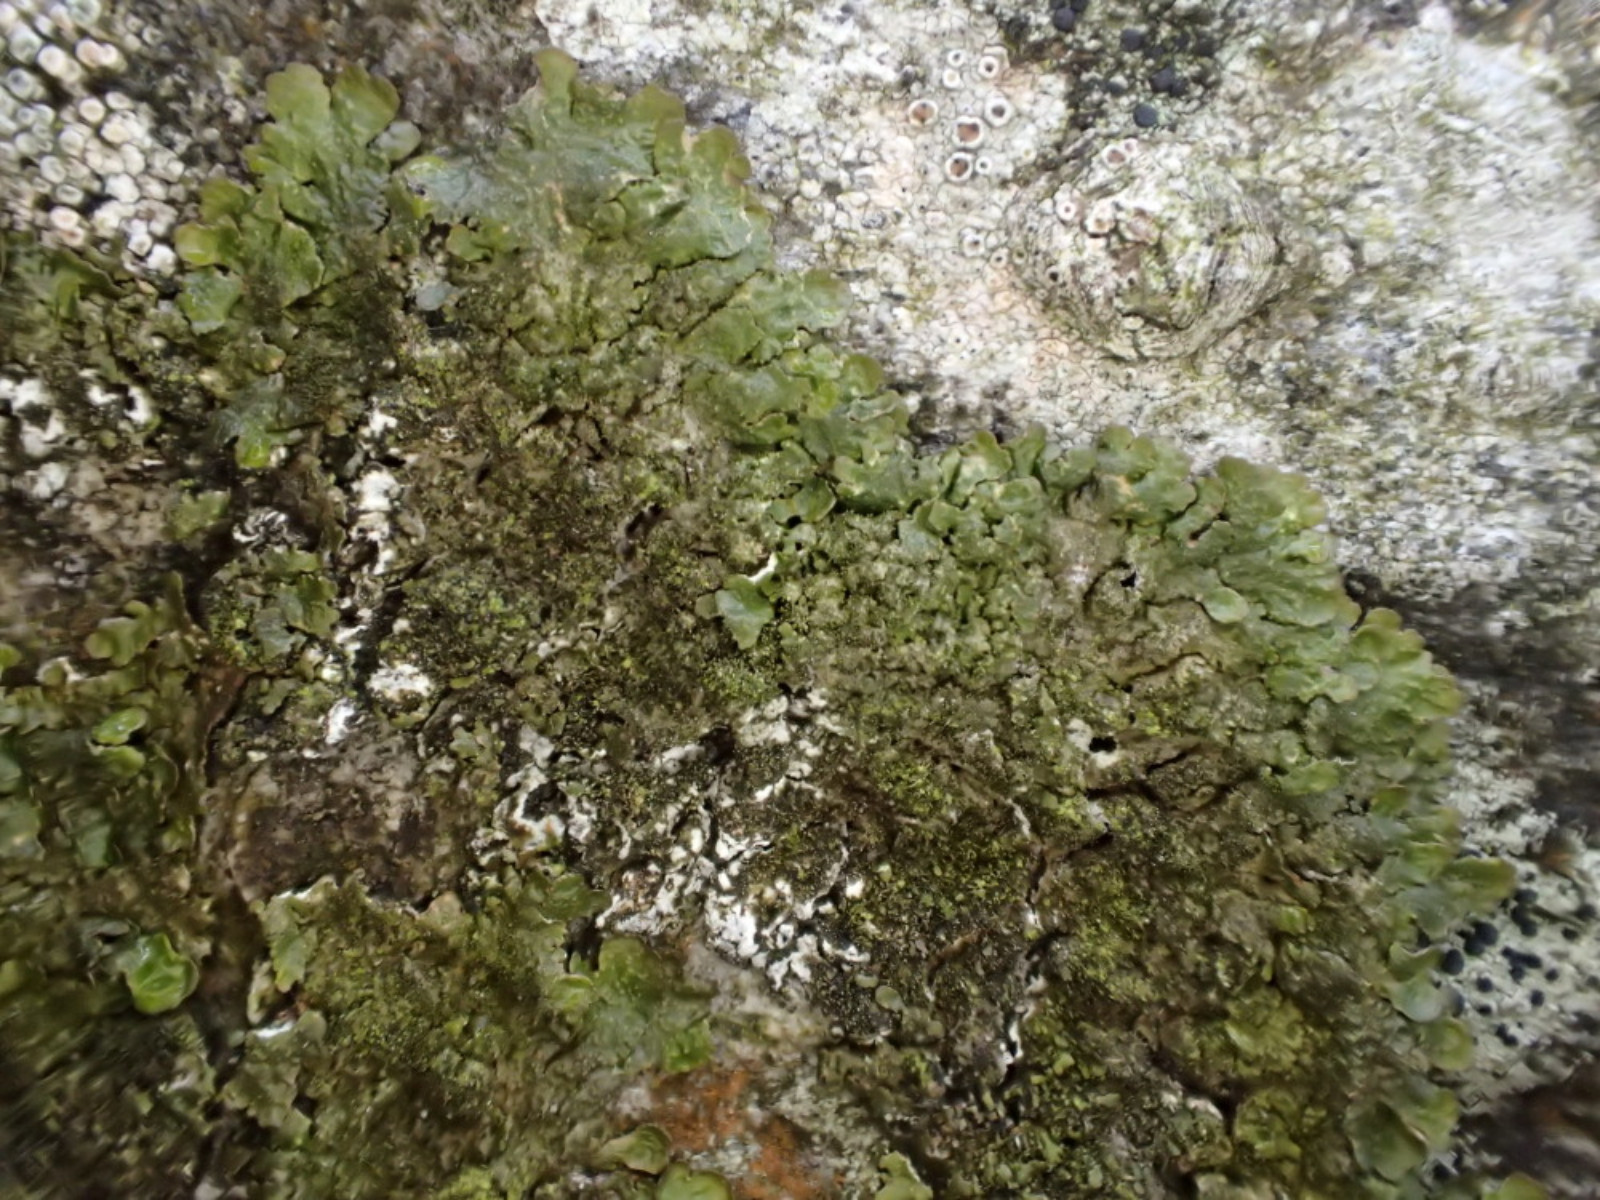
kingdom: Fungi
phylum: Ascomycota
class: Lecanoromycetes
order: Lecanorales
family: Parmeliaceae
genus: Melanelixia
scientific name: Melanelixia glabratula
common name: glinsende skållav
